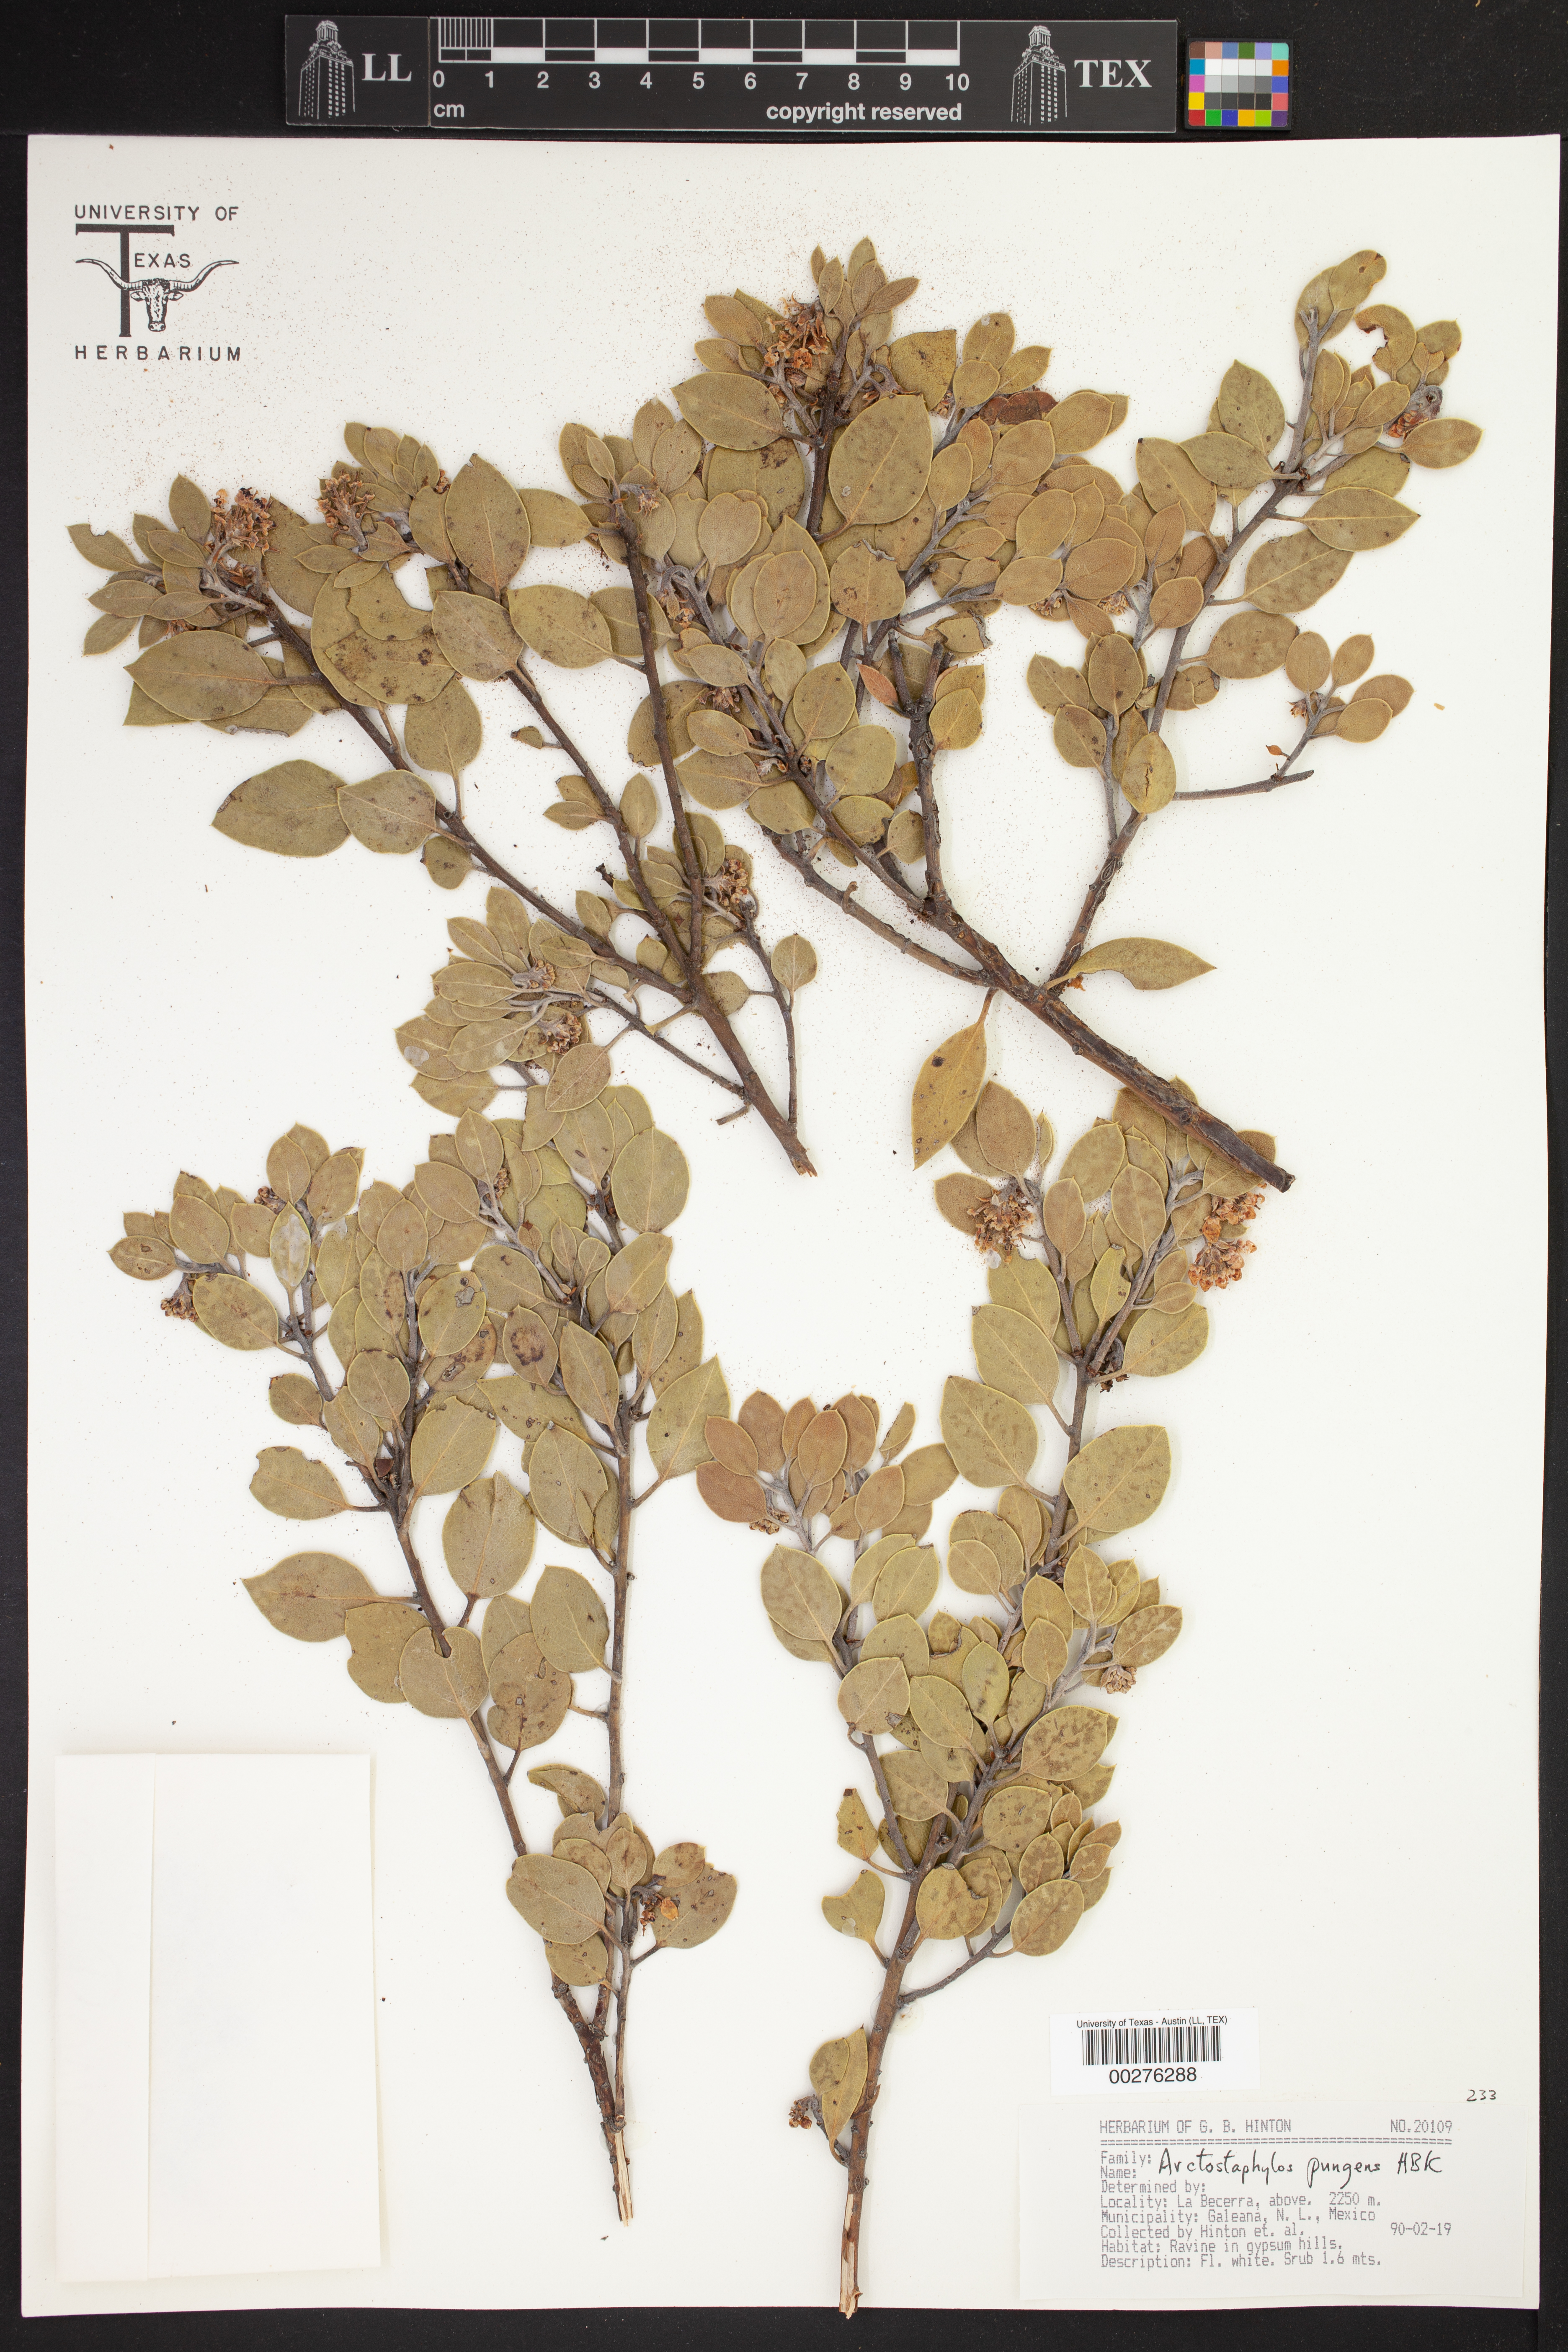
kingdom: Plantae
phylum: Tracheophyta
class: Magnoliopsida
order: Ericales
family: Ericaceae
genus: Arctostaphylos
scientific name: Arctostaphylos pungens
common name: Mexican manzanita
